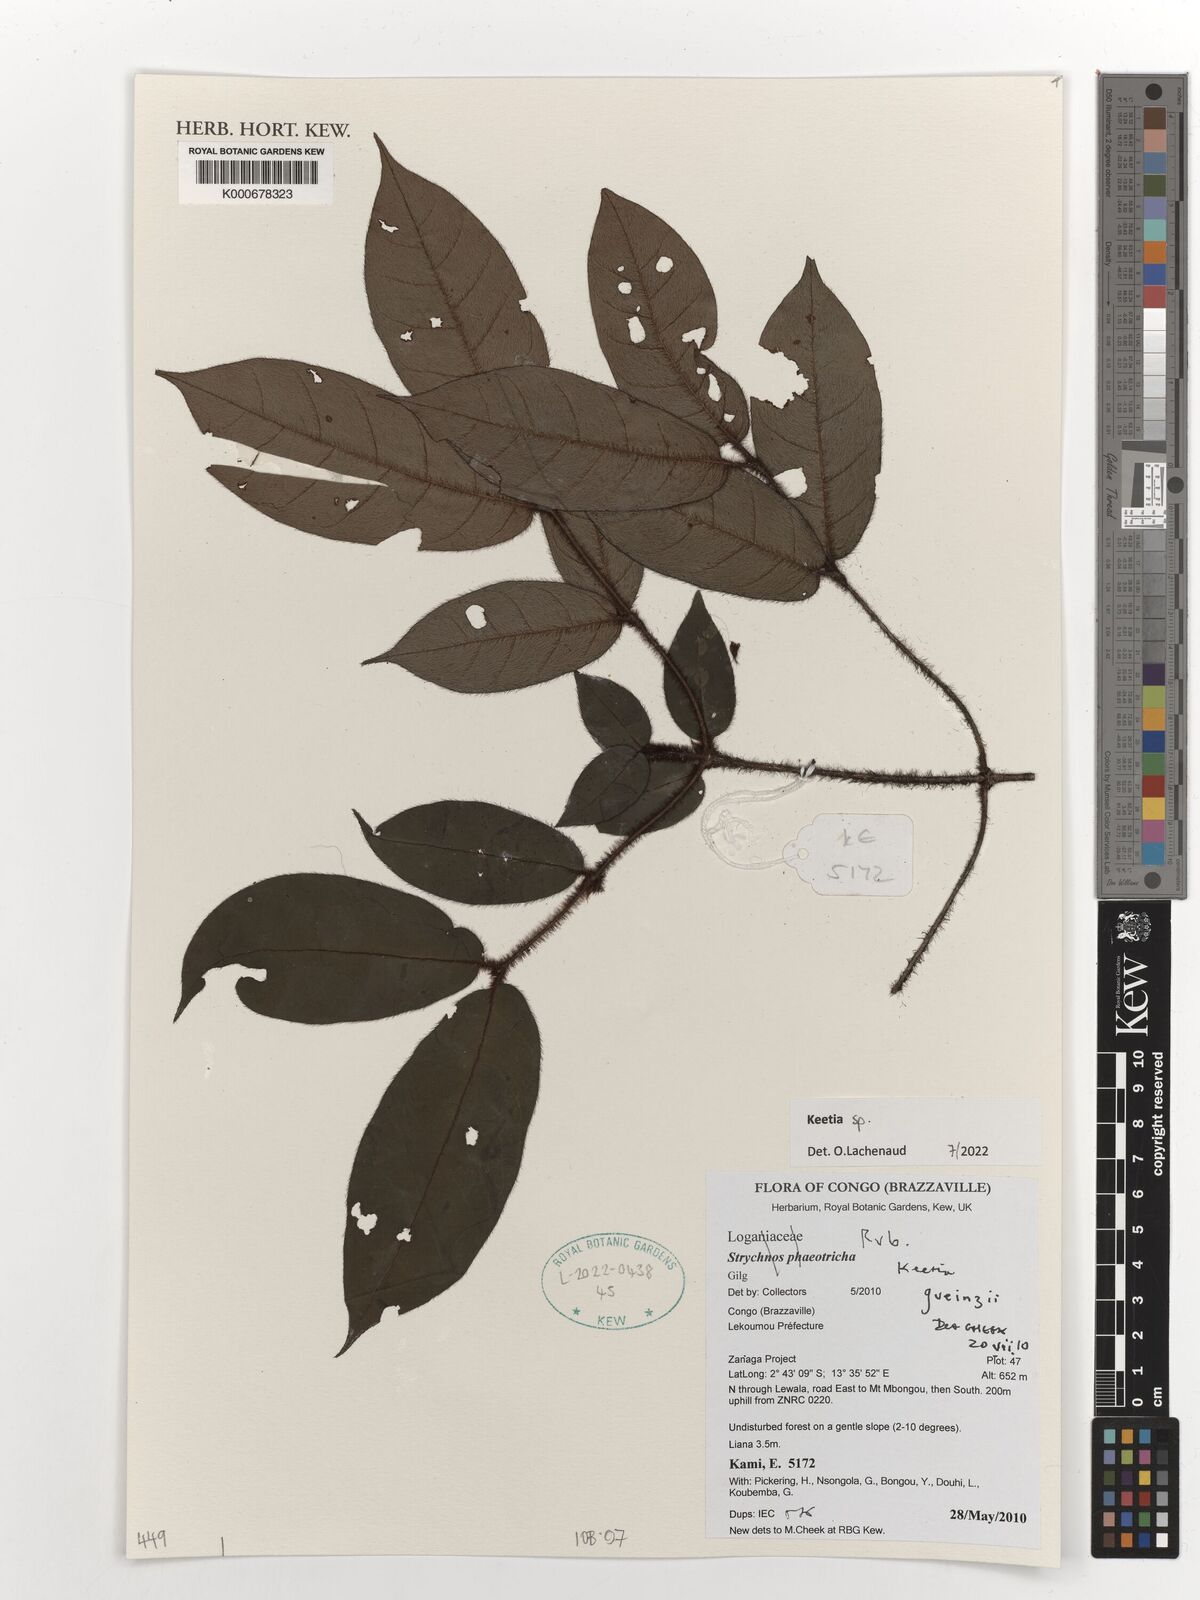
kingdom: Plantae
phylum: Tracheophyta
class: Magnoliopsida
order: Gentianales
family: Rubiaceae
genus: Keetia
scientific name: Keetia
